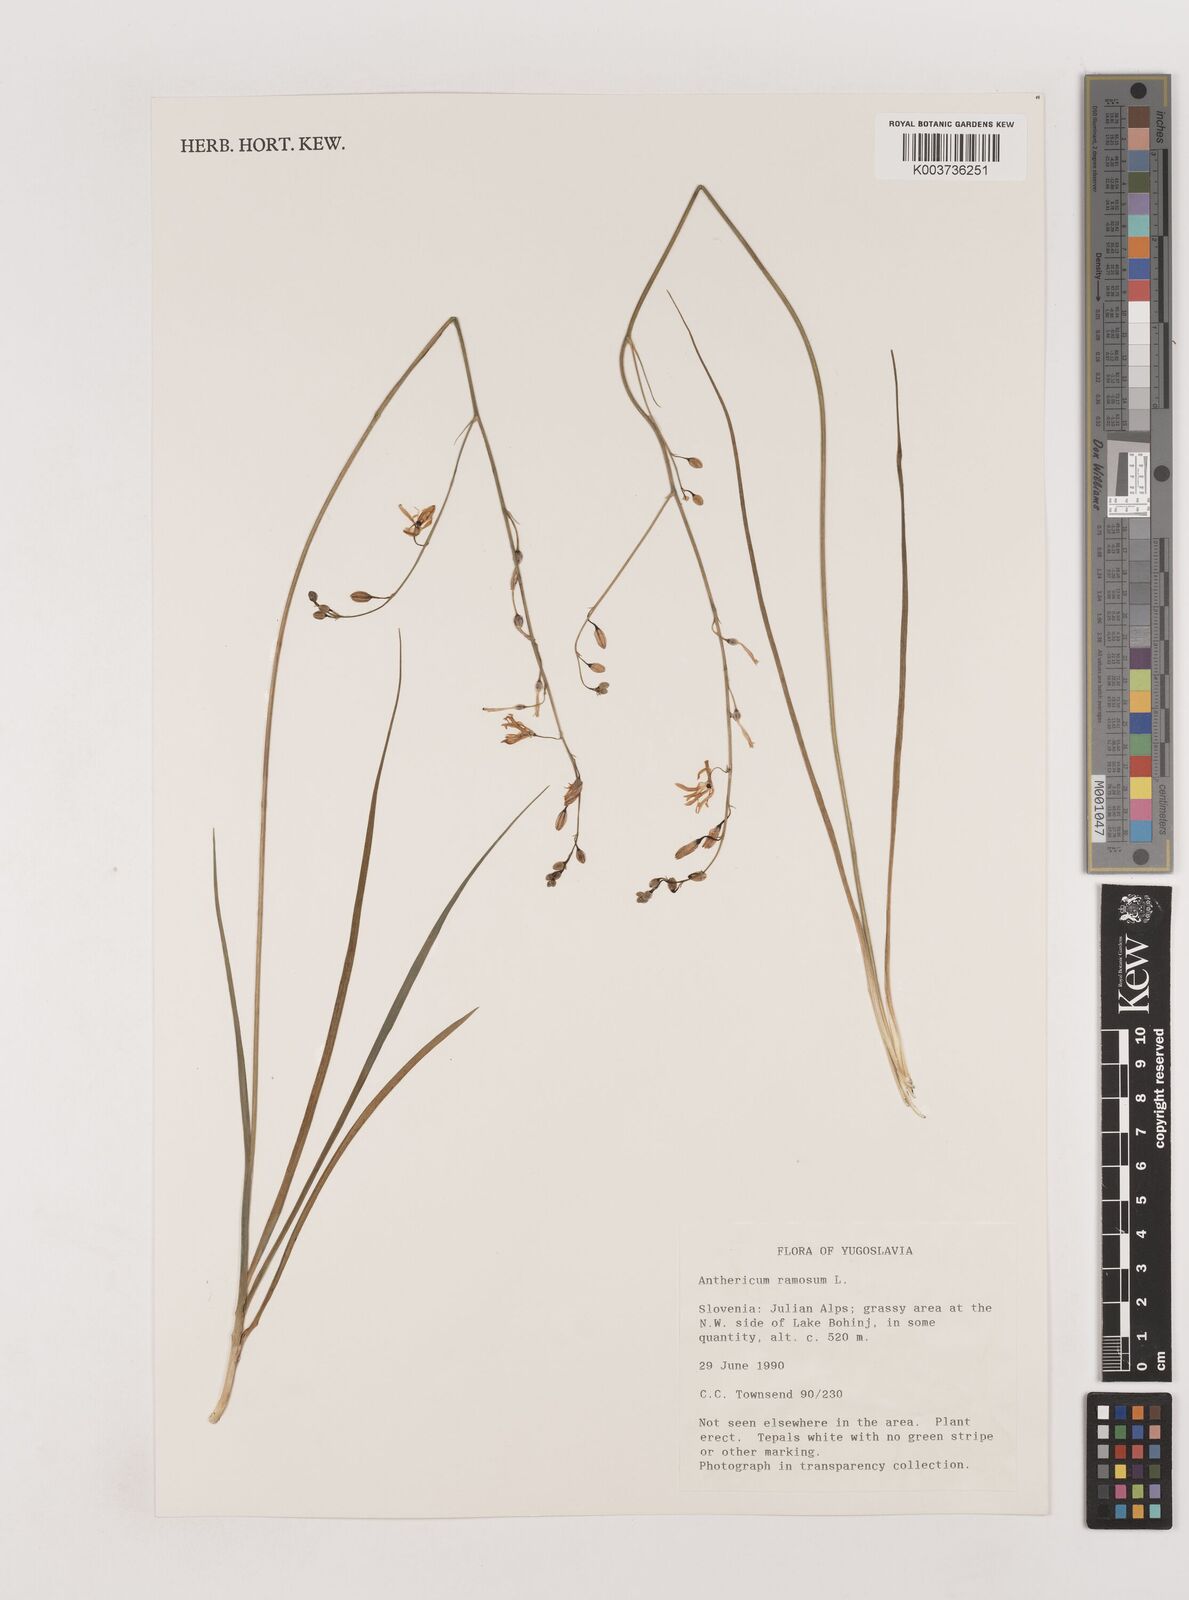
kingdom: Plantae
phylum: Tracheophyta
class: Liliopsida
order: Asparagales
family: Asparagaceae
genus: Anthericum
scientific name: Anthericum ramosum
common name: Branched st. bernard's-lily
